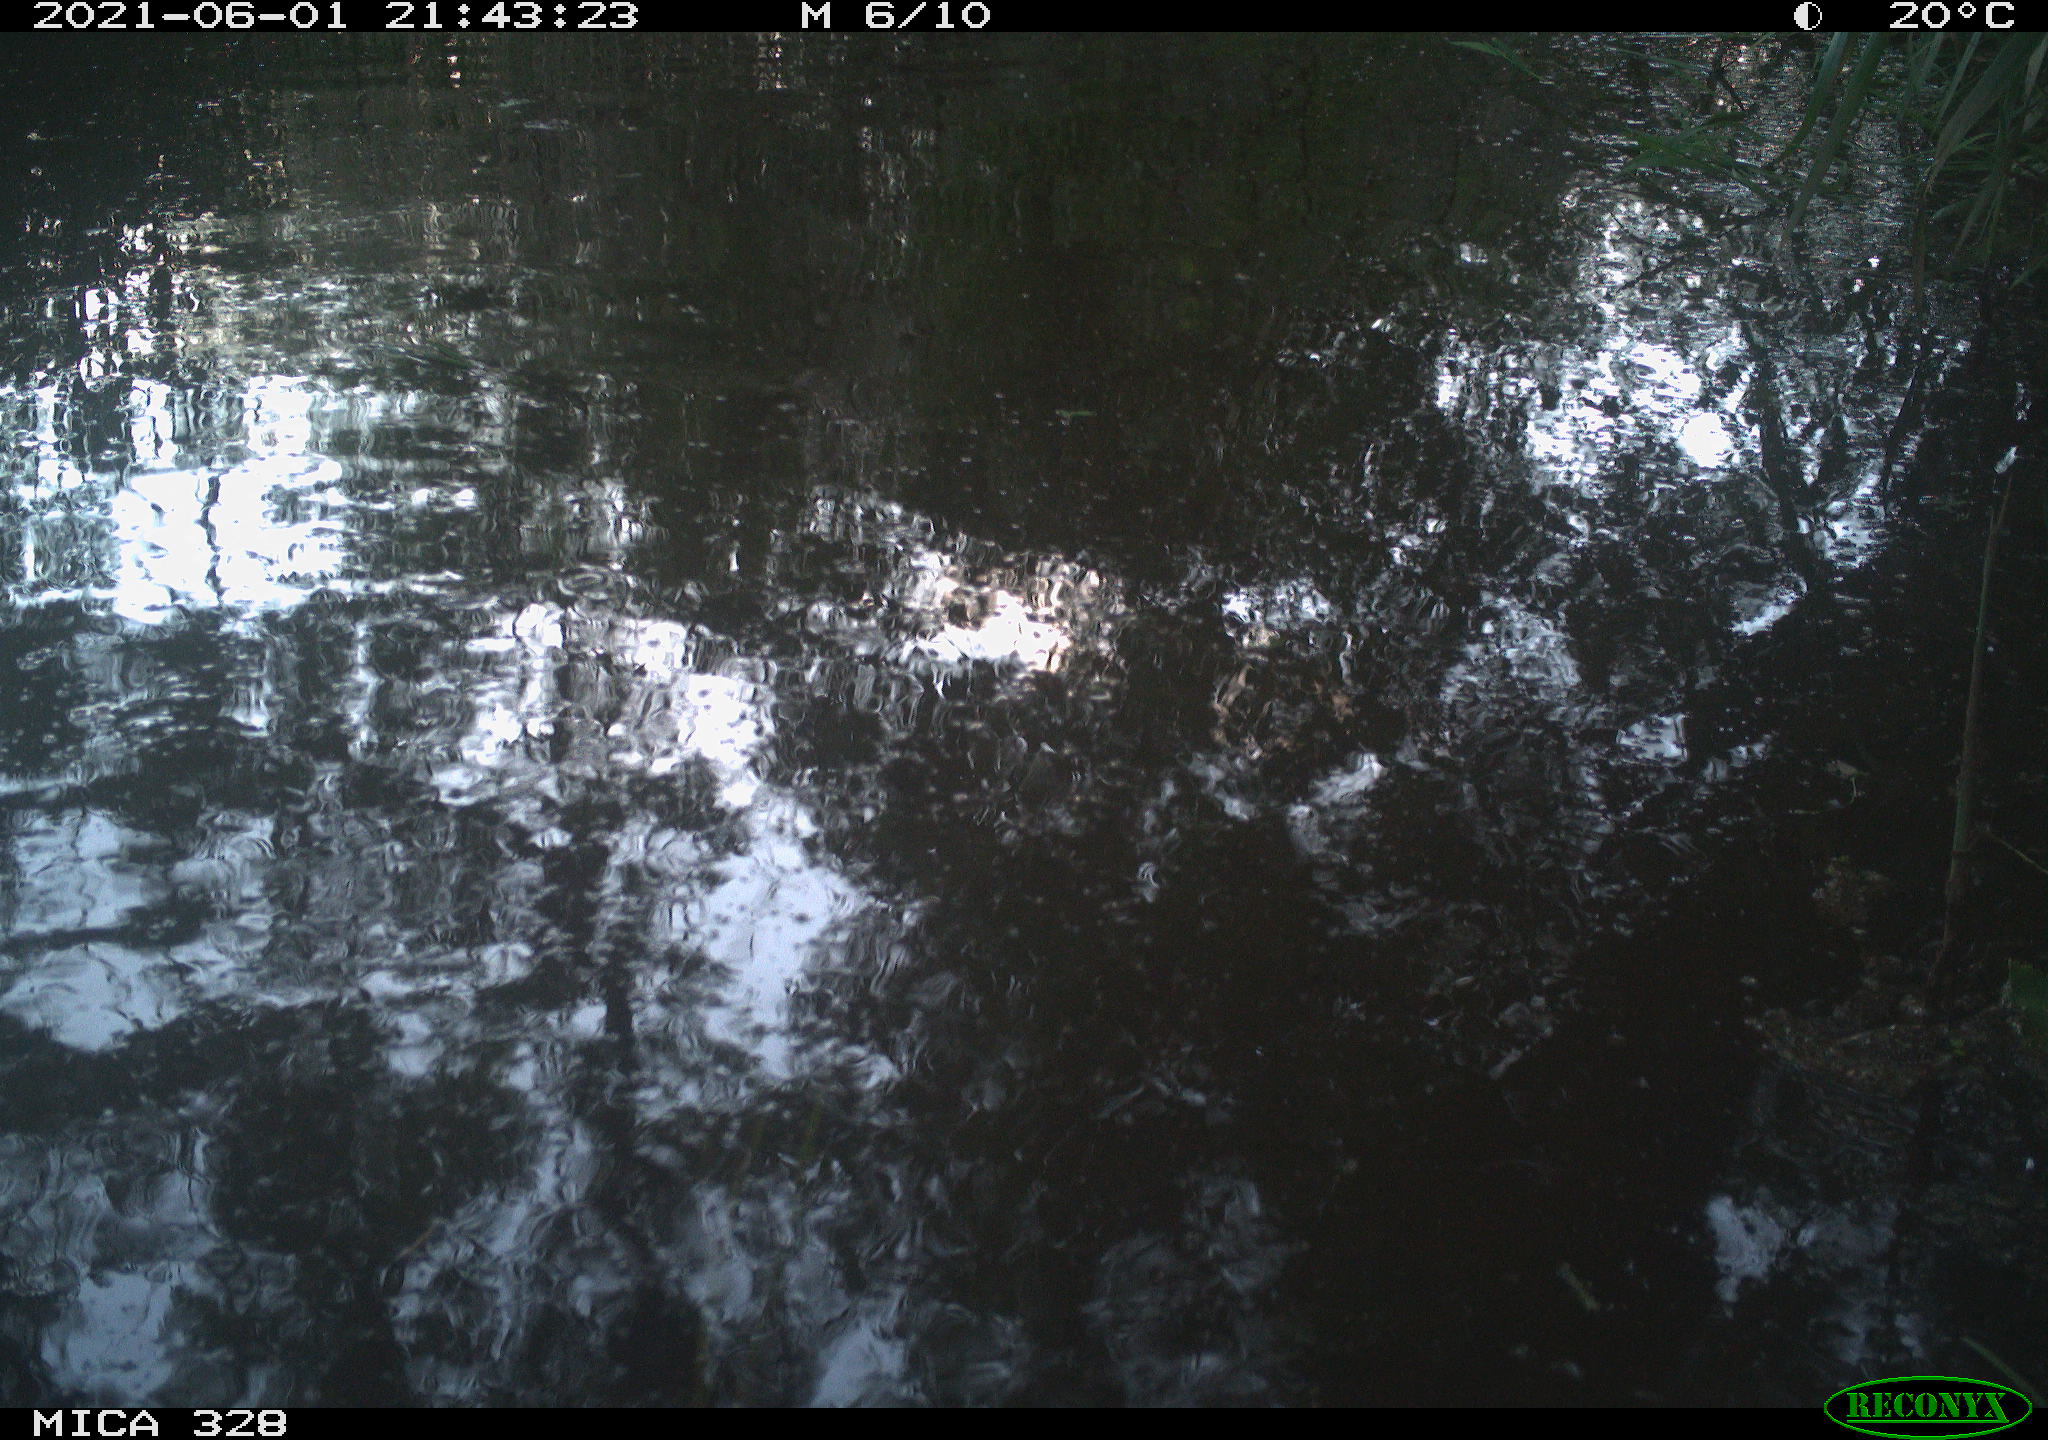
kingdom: Animalia
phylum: Chordata
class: Aves
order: Anseriformes
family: Anatidae
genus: Aix
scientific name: Aix galericulata
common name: Mandarin duck
